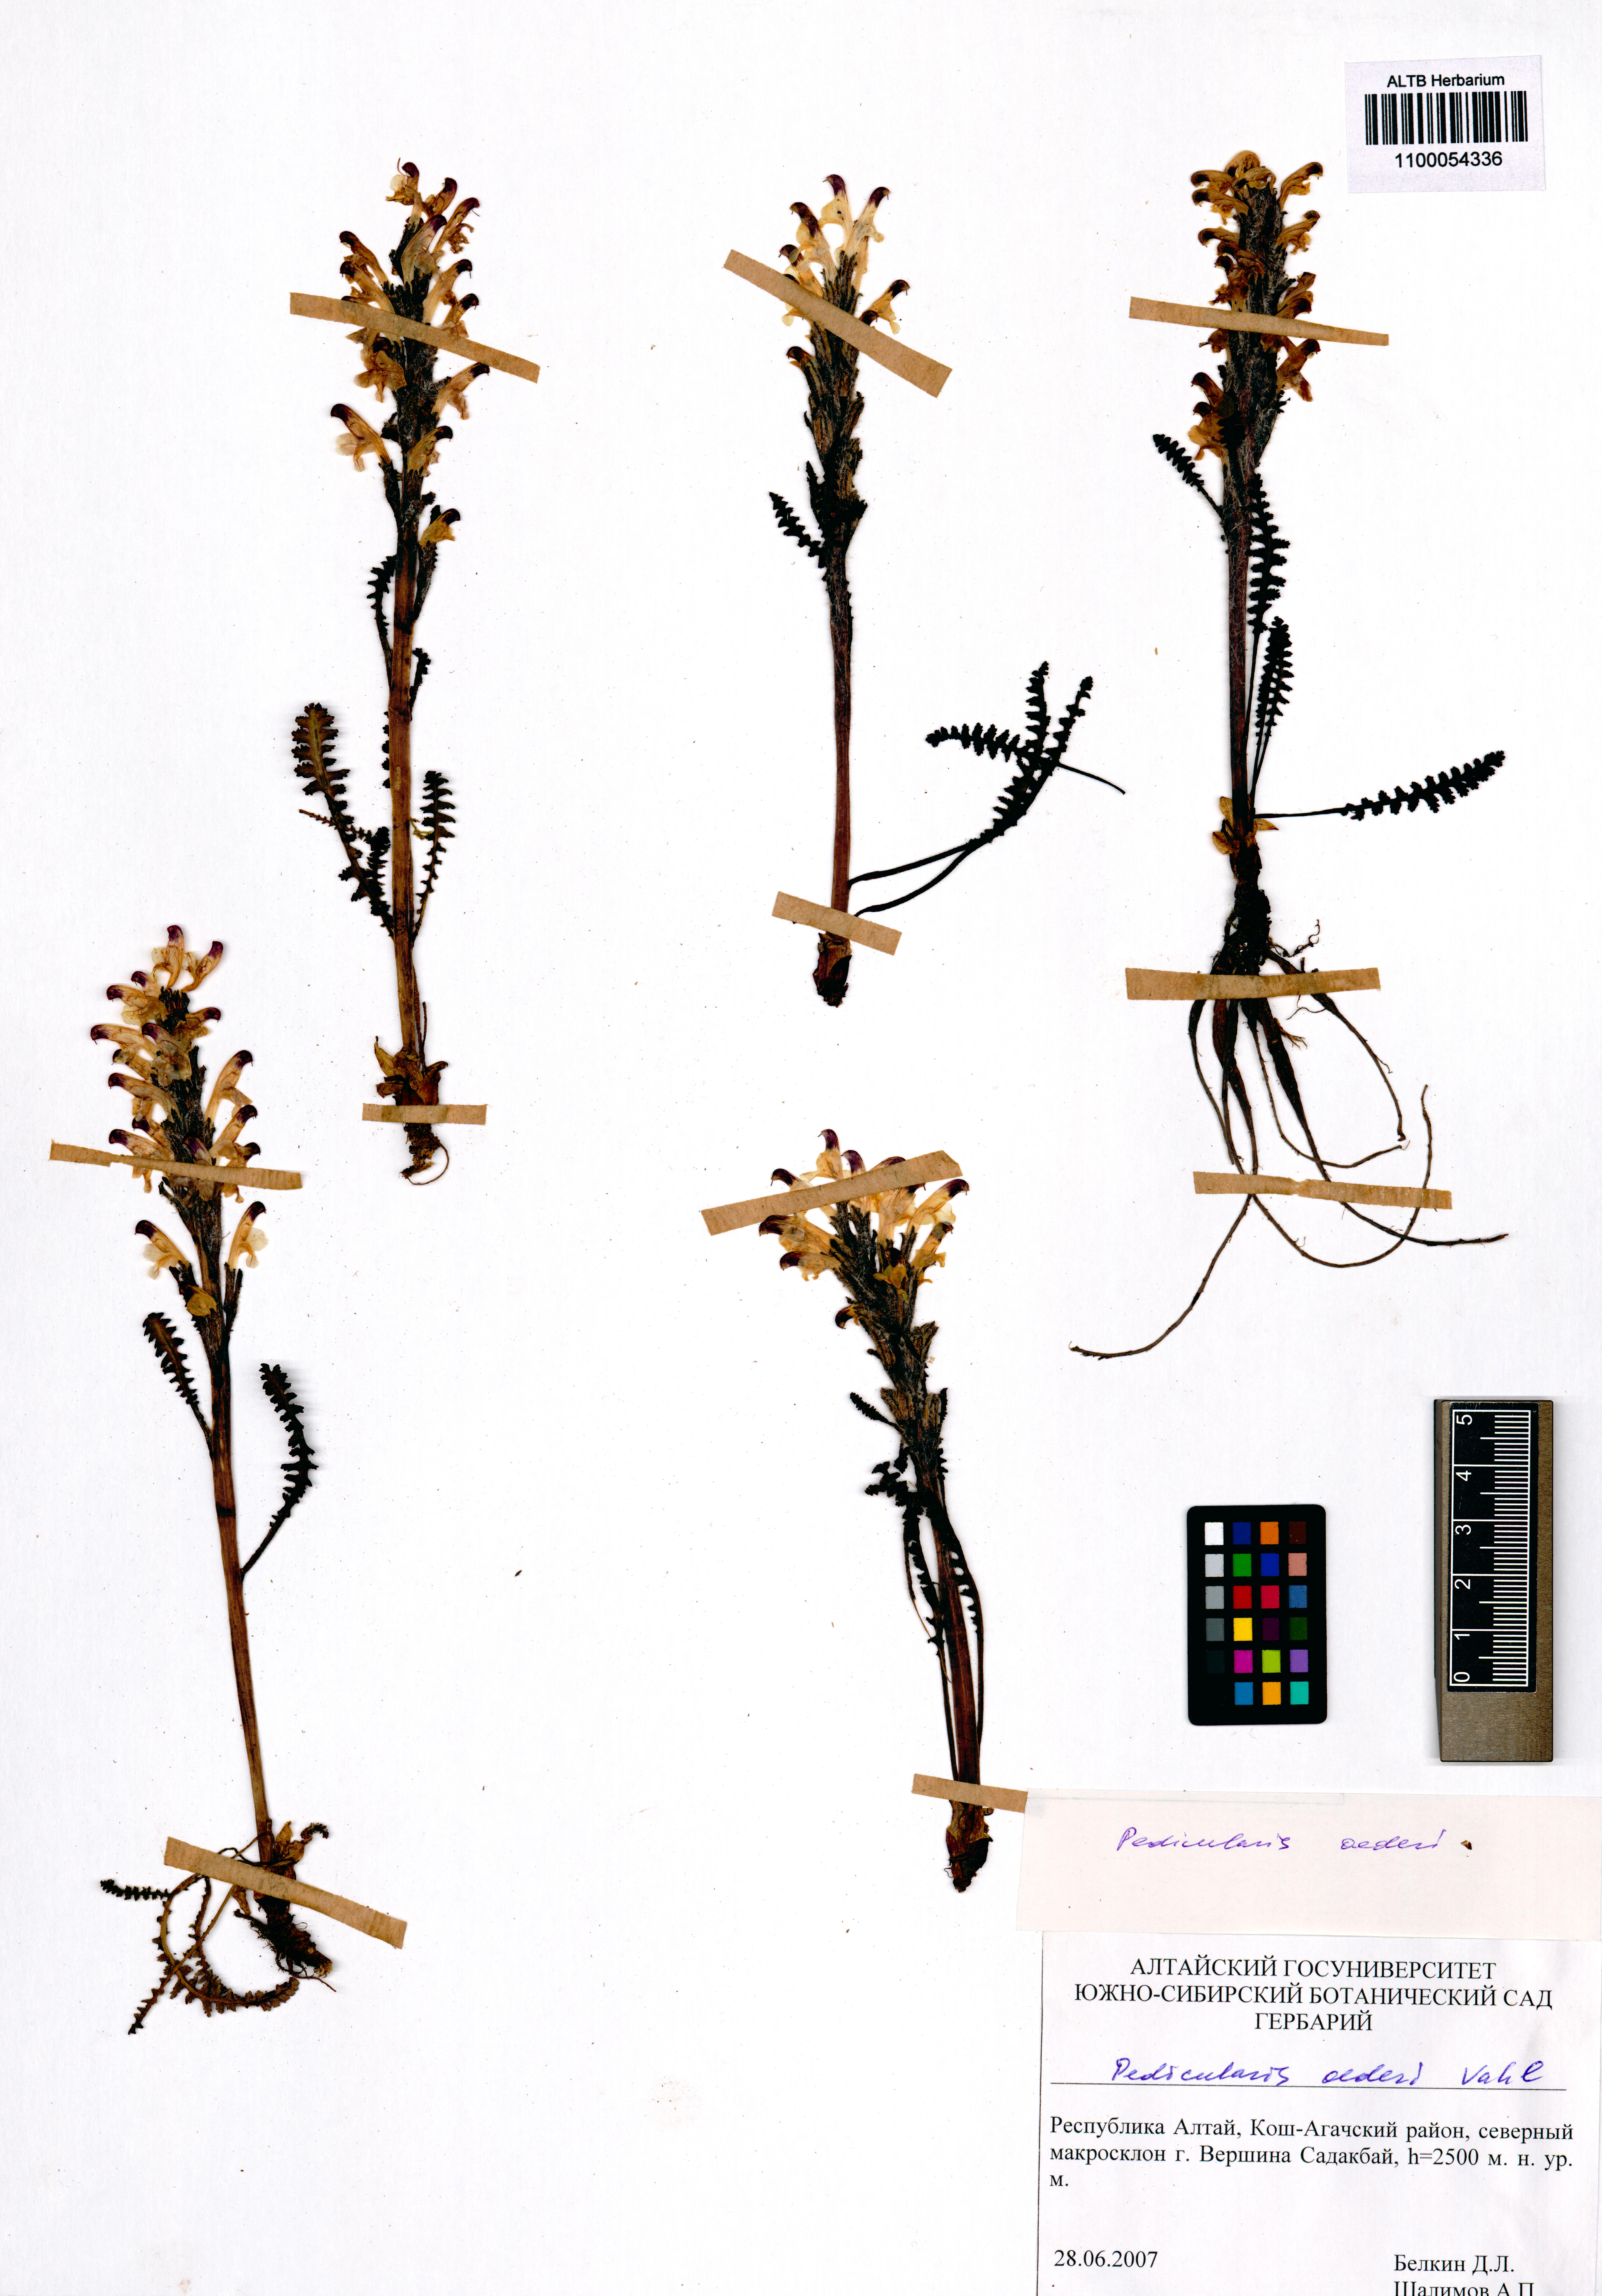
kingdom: Plantae
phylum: Tracheophyta
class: Magnoliopsida
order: Lamiales
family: Orobanchaceae
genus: Pedicularis
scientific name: Pedicularis oederi
